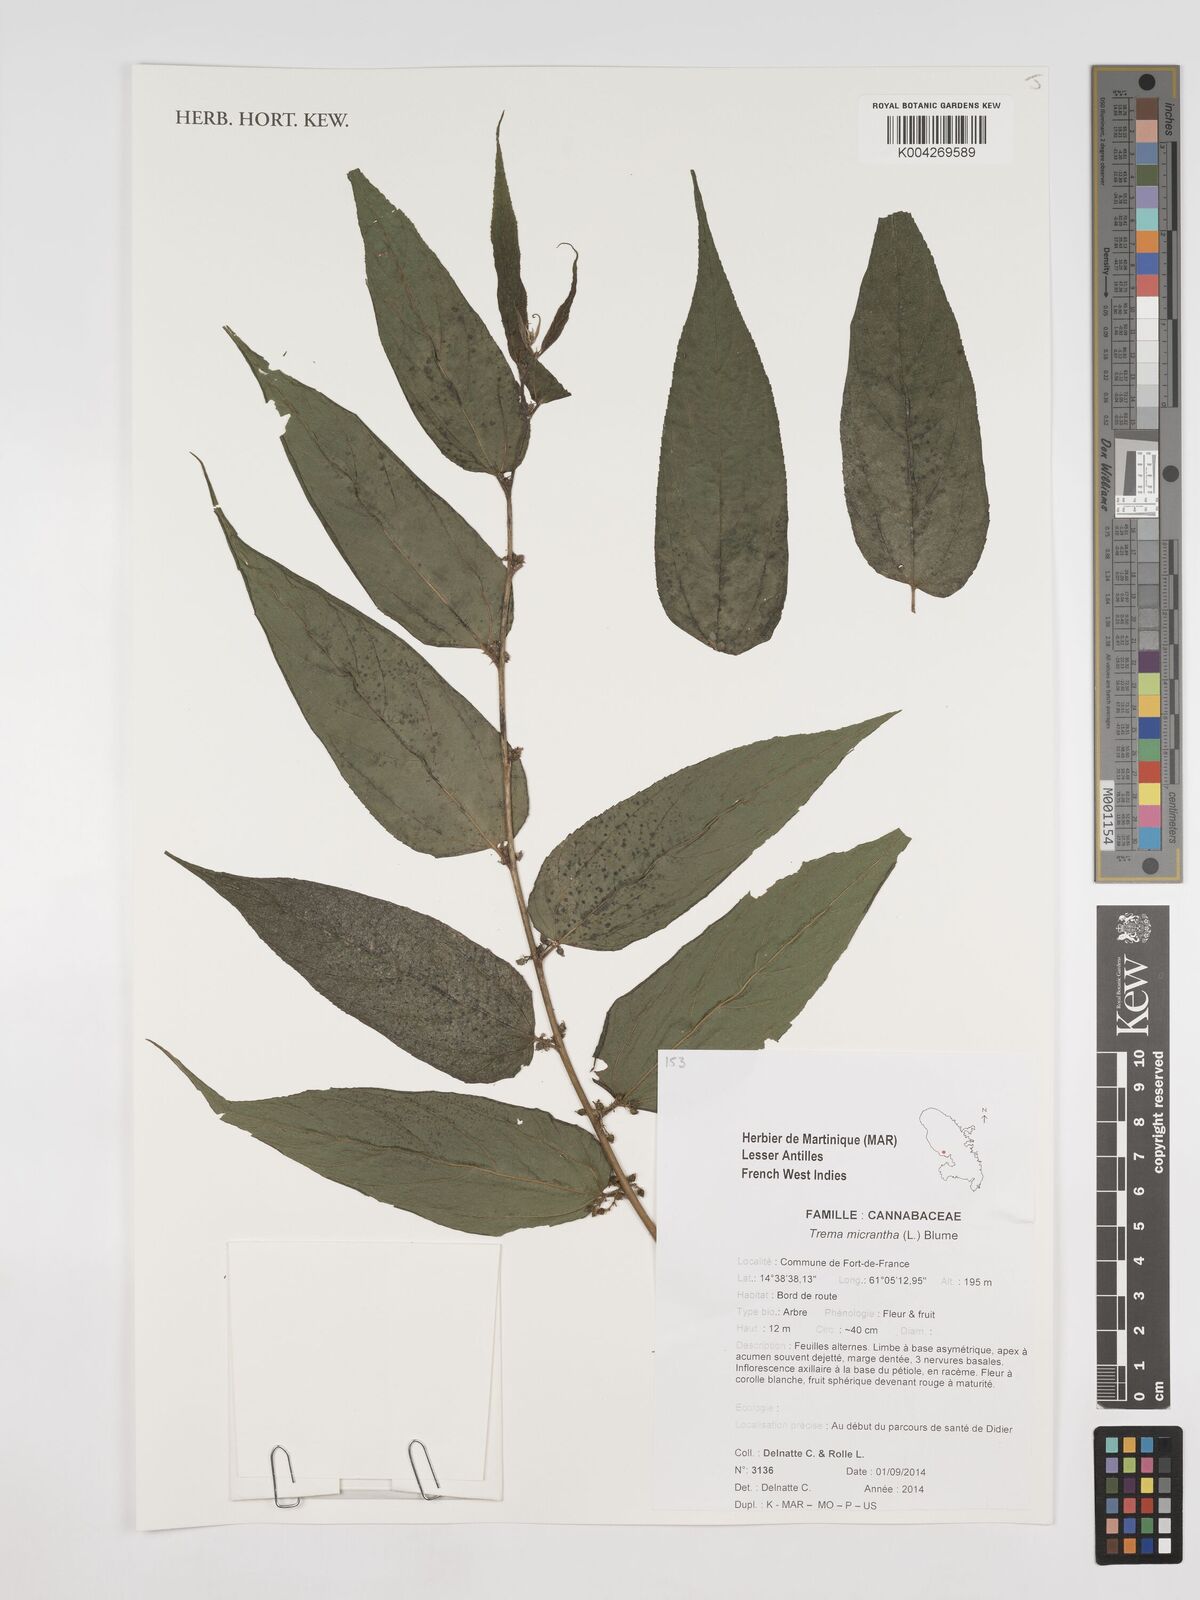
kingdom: Plantae
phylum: Tracheophyta
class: Magnoliopsida
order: Rosales
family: Cannabaceae
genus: Trema
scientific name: Trema micranthum
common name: Jamaican nettletree
